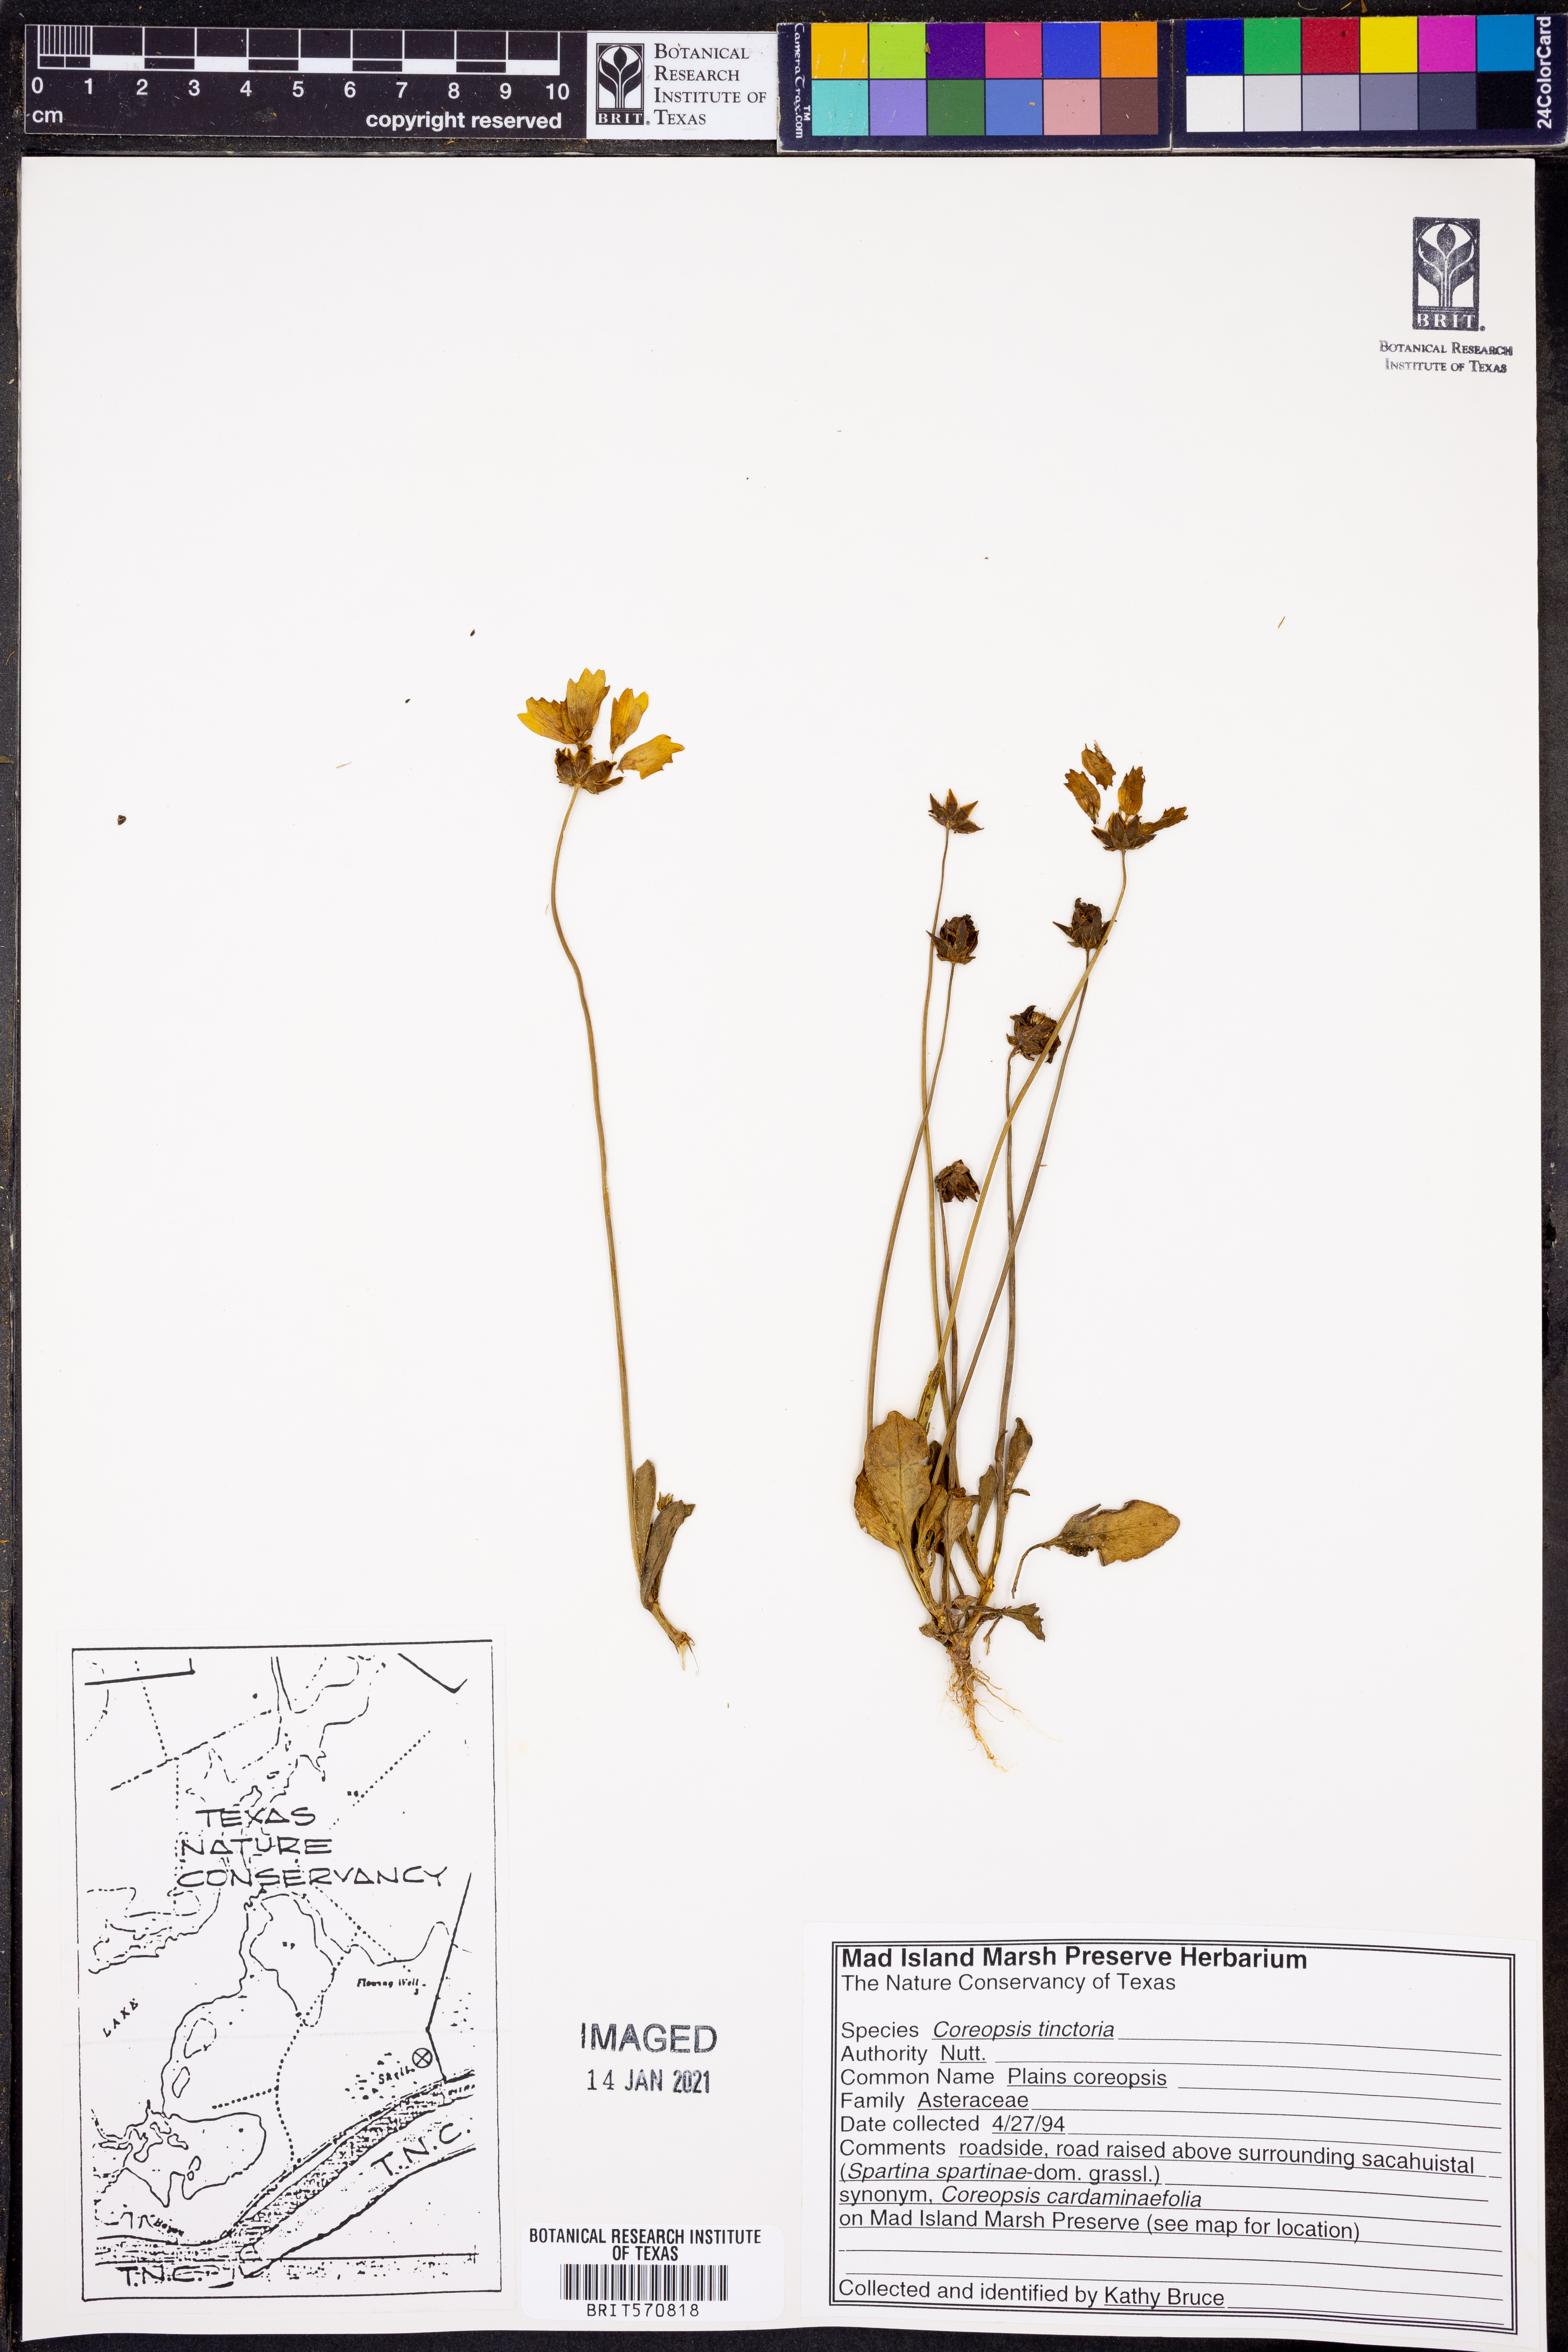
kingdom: Plantae
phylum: Tracheophyta
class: Magnoliopsida
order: Asterales
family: Asteraceae
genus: Coreopsis
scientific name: Coreopsis tinctoria
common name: Garden tickseed
